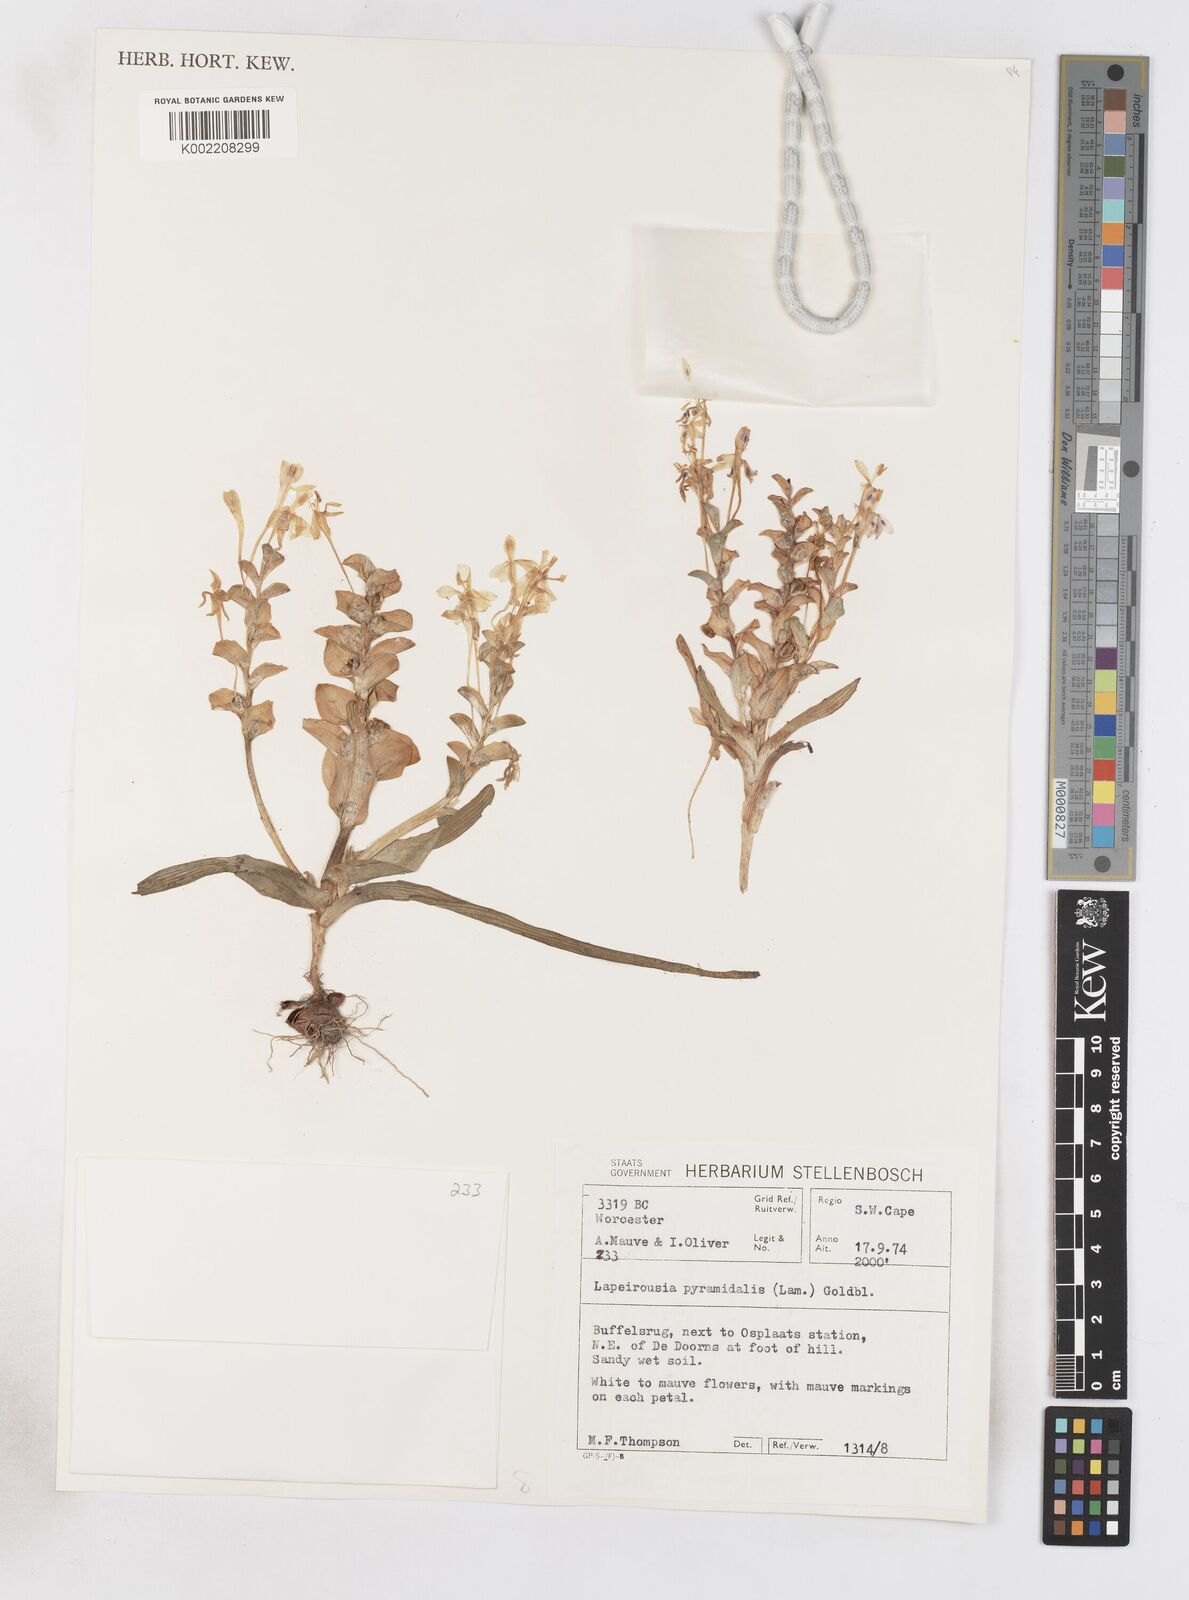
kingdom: Plantae
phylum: Tracheophyta
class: Liliopsida
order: Asparagales
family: Iridaceae
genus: Lapeirousia
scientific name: Lapeirousia pyramidalis
